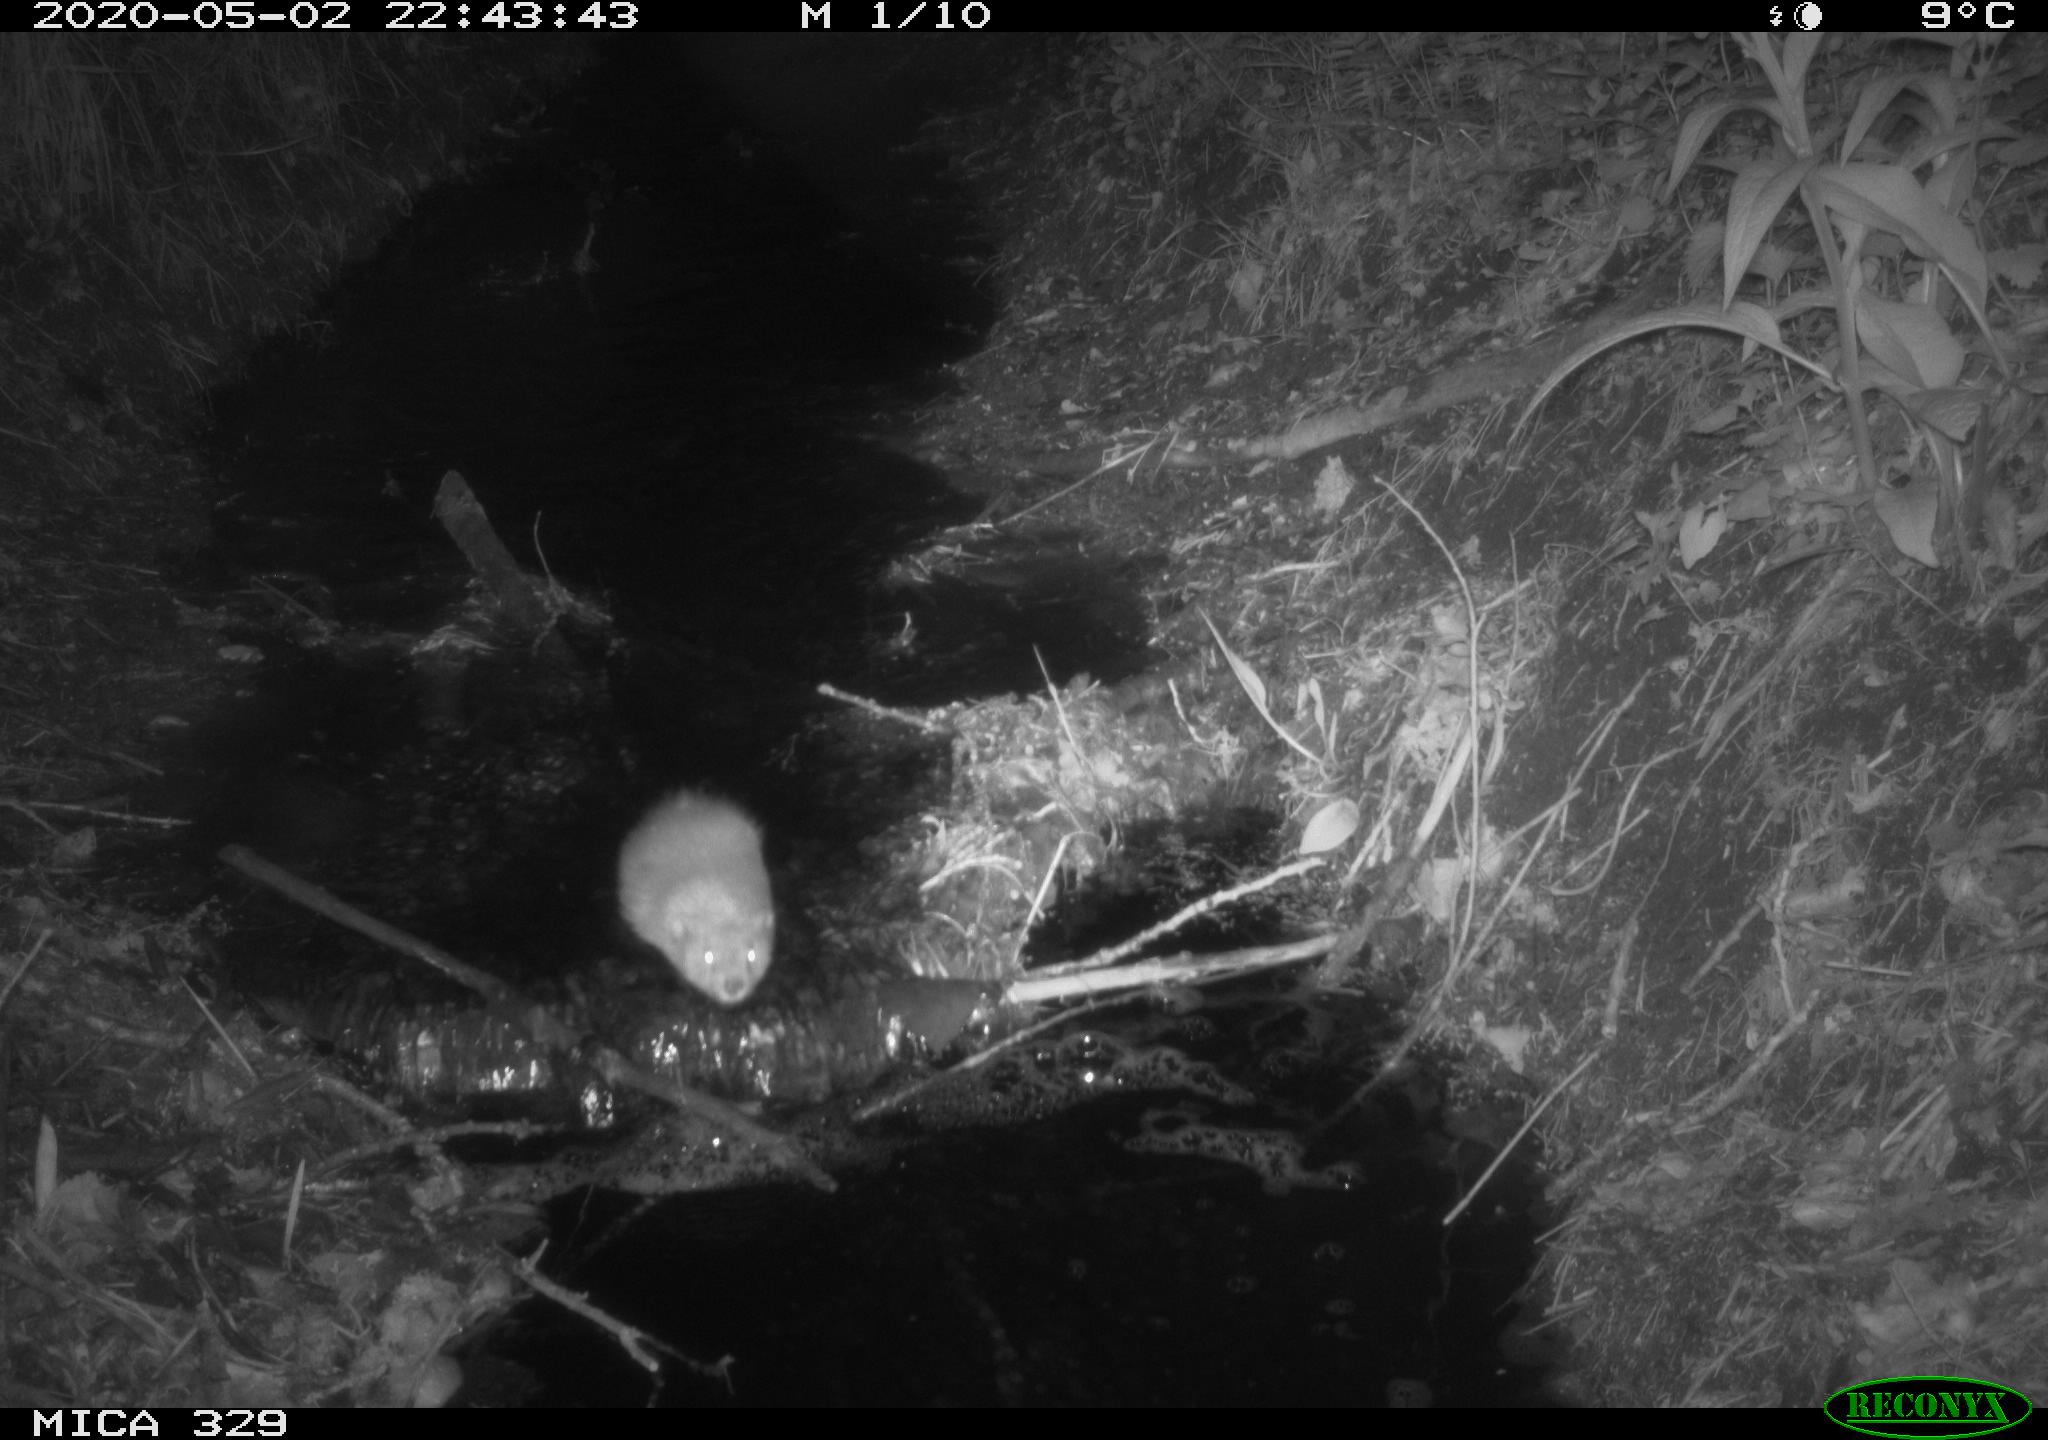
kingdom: Animalia
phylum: Chordata
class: Mammalia
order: Rodentia
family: Cricetidae
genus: Ondatra
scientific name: Ondatra zibethicus
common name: Muskrat
